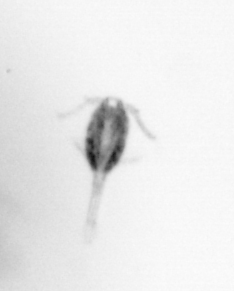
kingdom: Animalia
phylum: Arthropoda
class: Copepoda
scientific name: Copepoda
